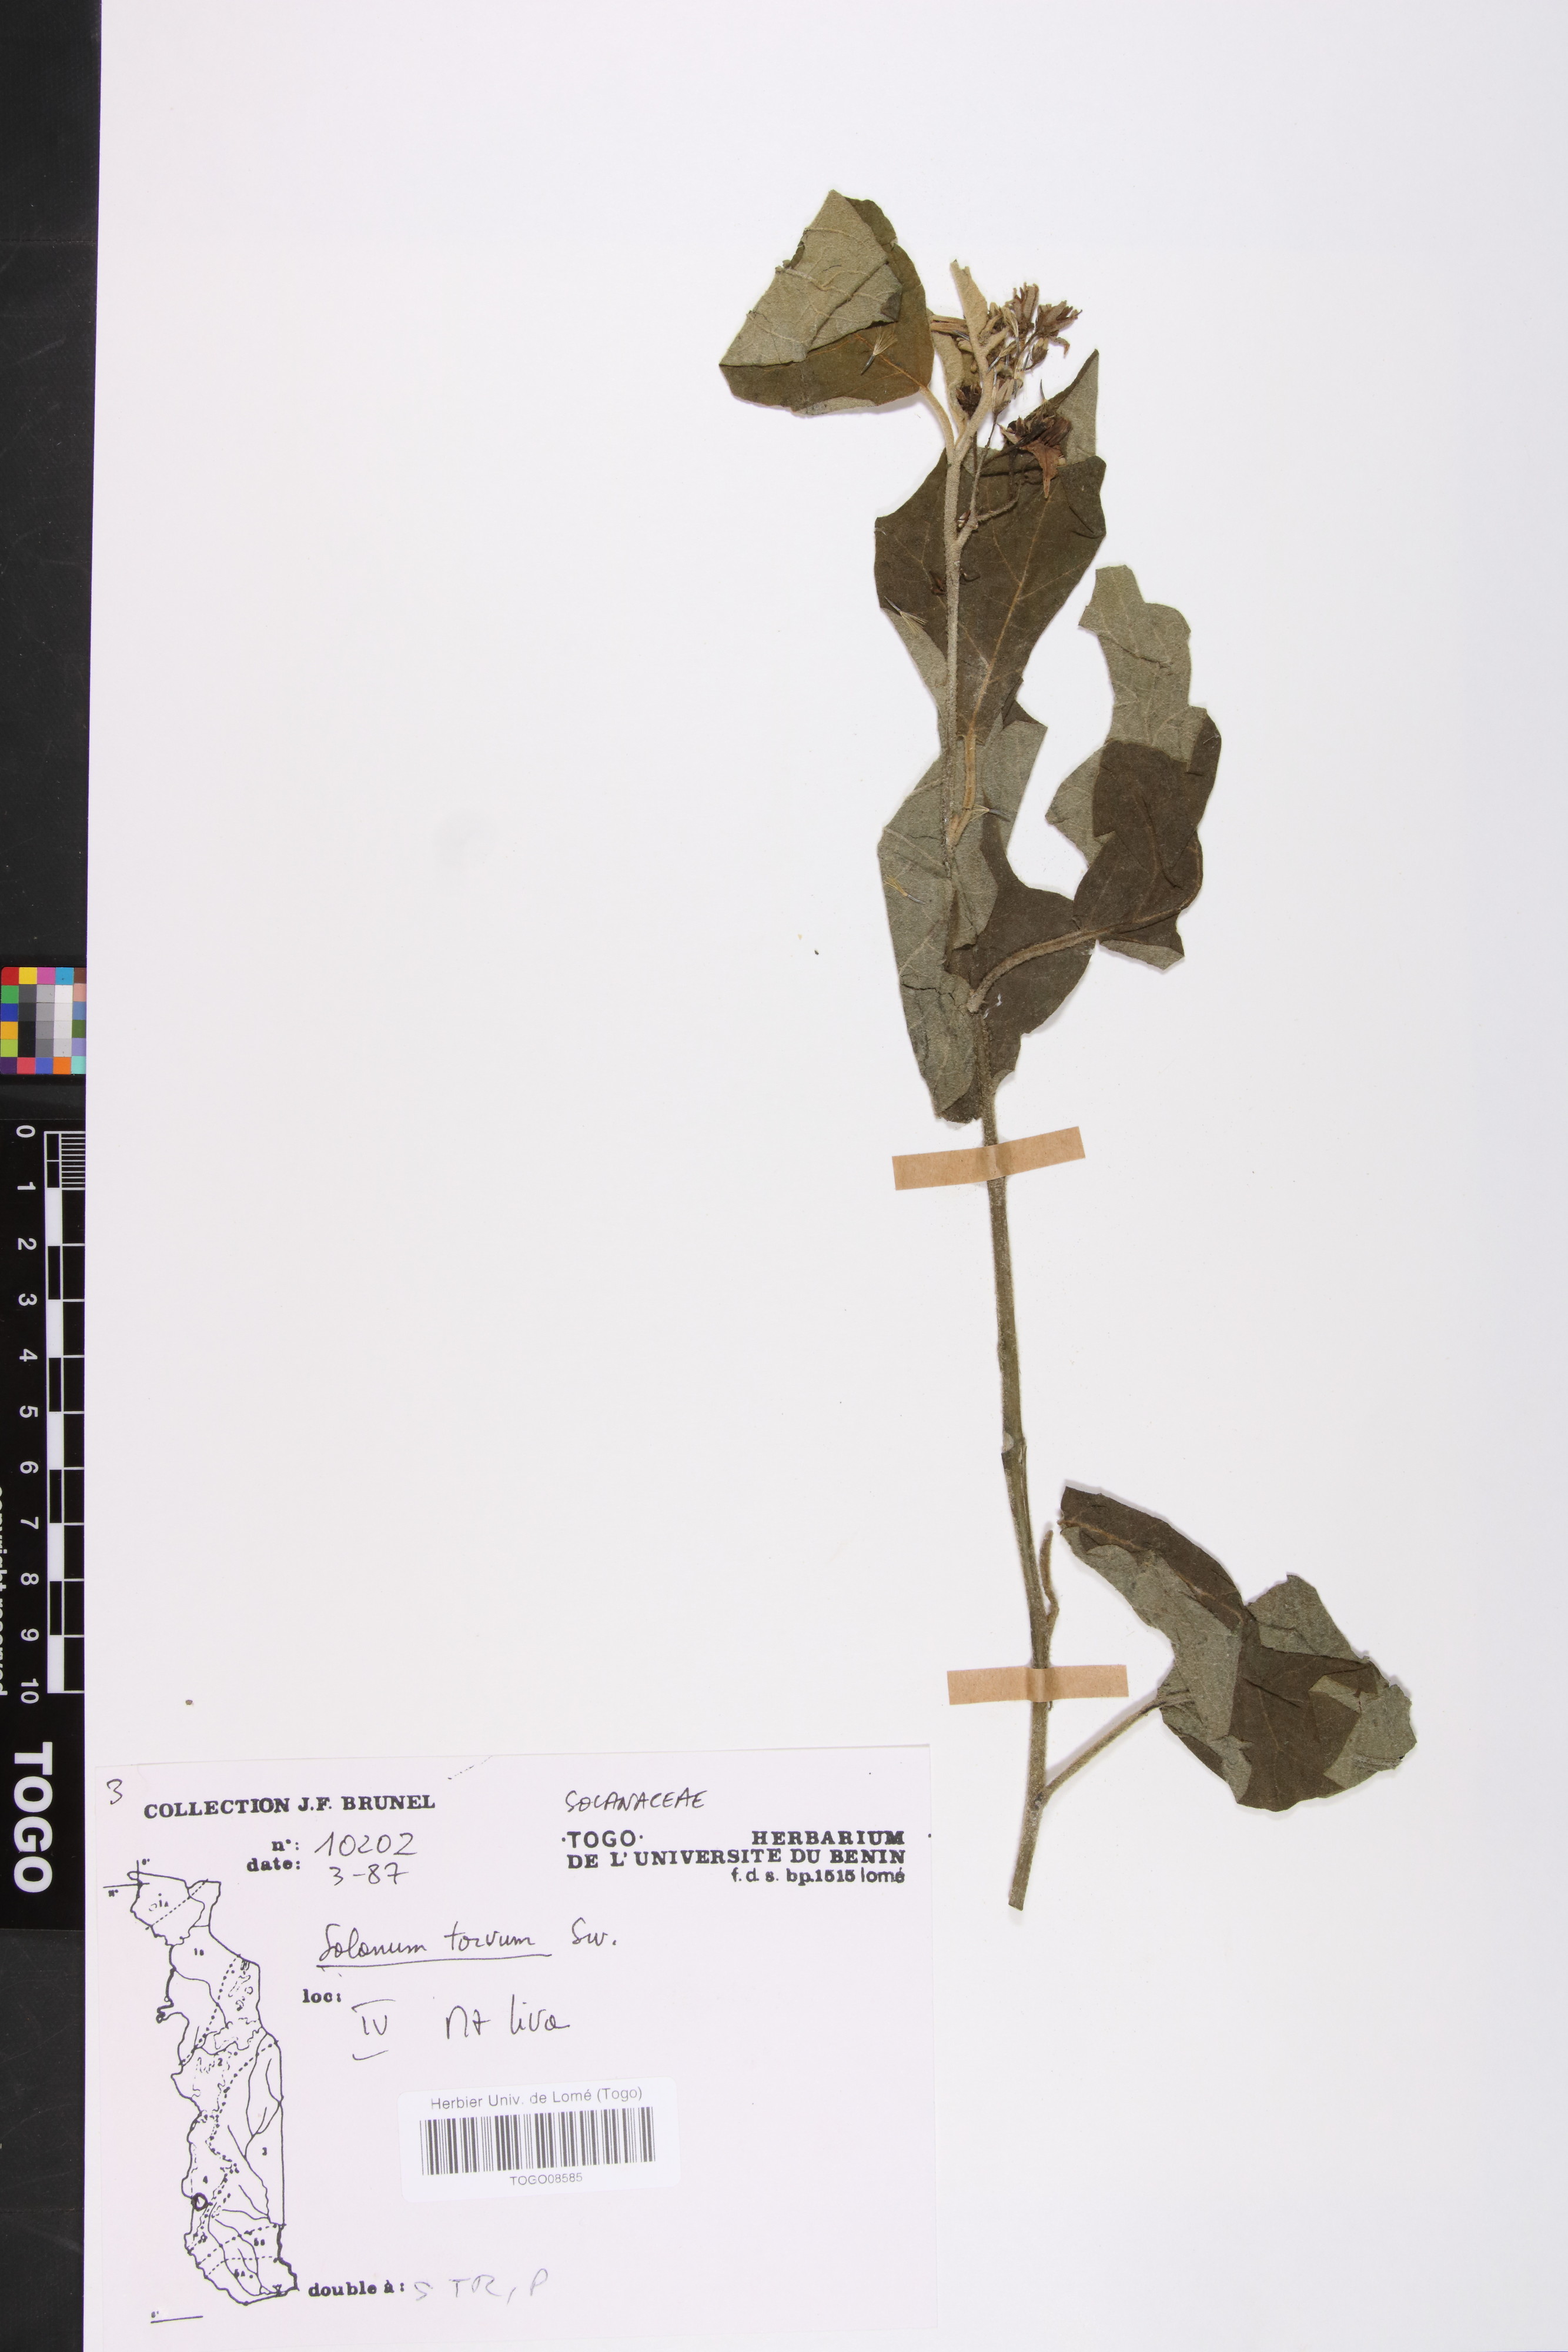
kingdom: Plantae
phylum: Tracheophyta
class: Magnoliopsida
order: Solanales
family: Solanaceae
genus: Solanum
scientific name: Solanum torvum
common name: Turkey berry
